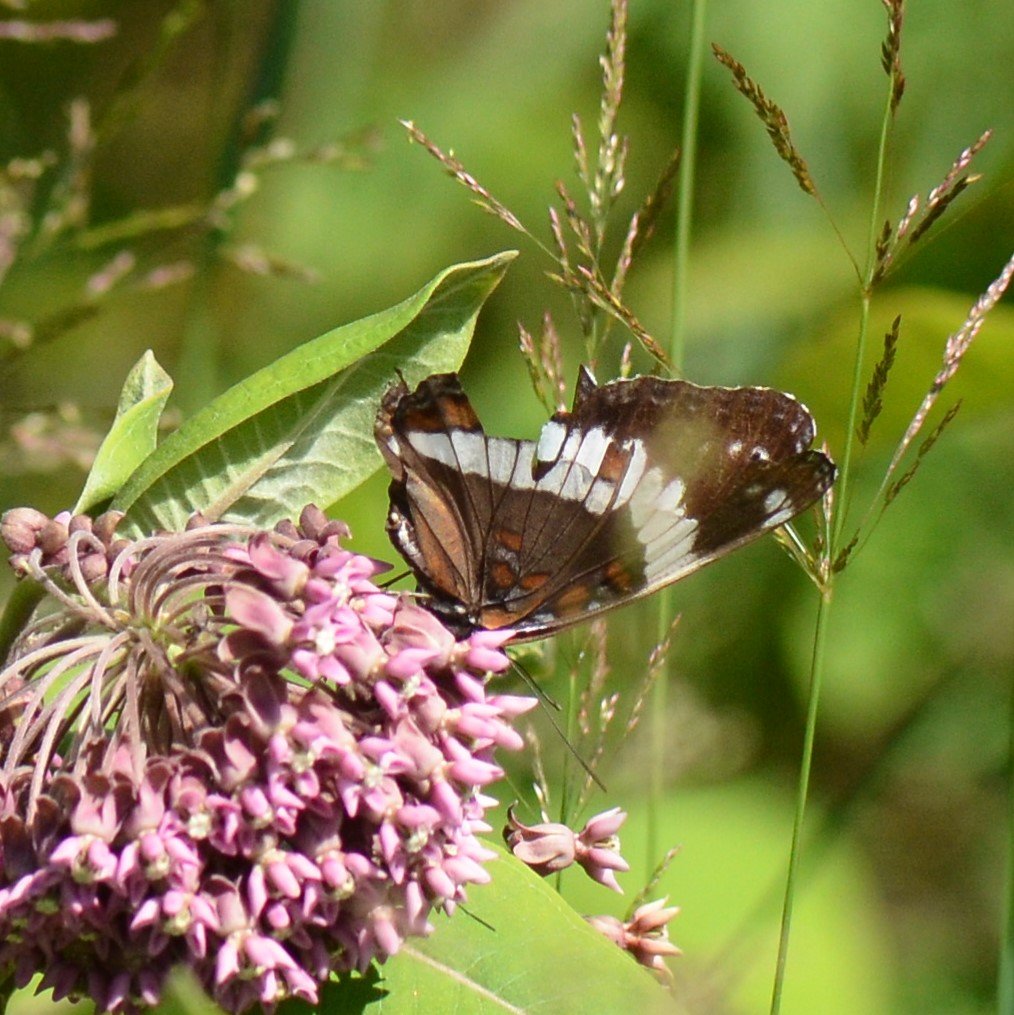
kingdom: Animalia
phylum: Arthropoda
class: Insecta
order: Lepidoptera
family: Nymphalidae
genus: Limenitis
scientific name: Limenitis arthemis
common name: Red-spotted Admiral
